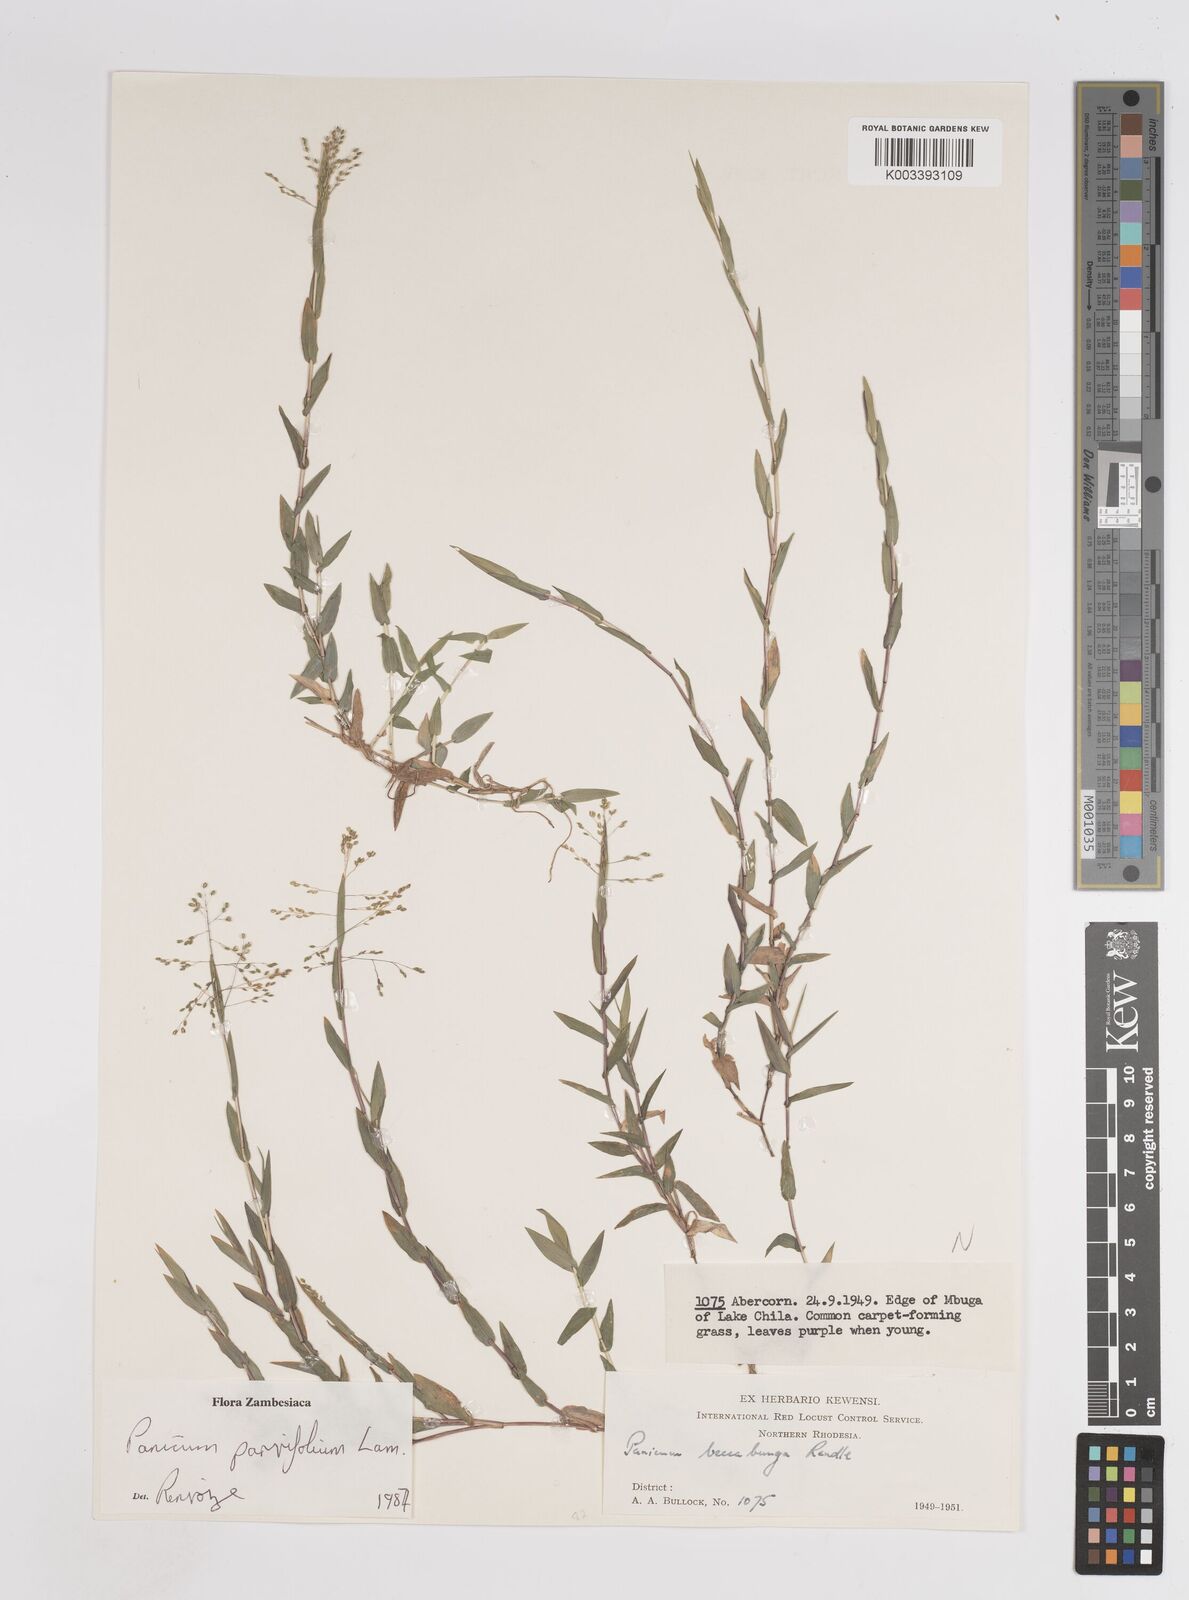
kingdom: Plantae
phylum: Tracheophyta
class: Liliopsida
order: Poales
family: Poaceae
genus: Trichanthecium
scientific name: Trichanthecium parvifolium
